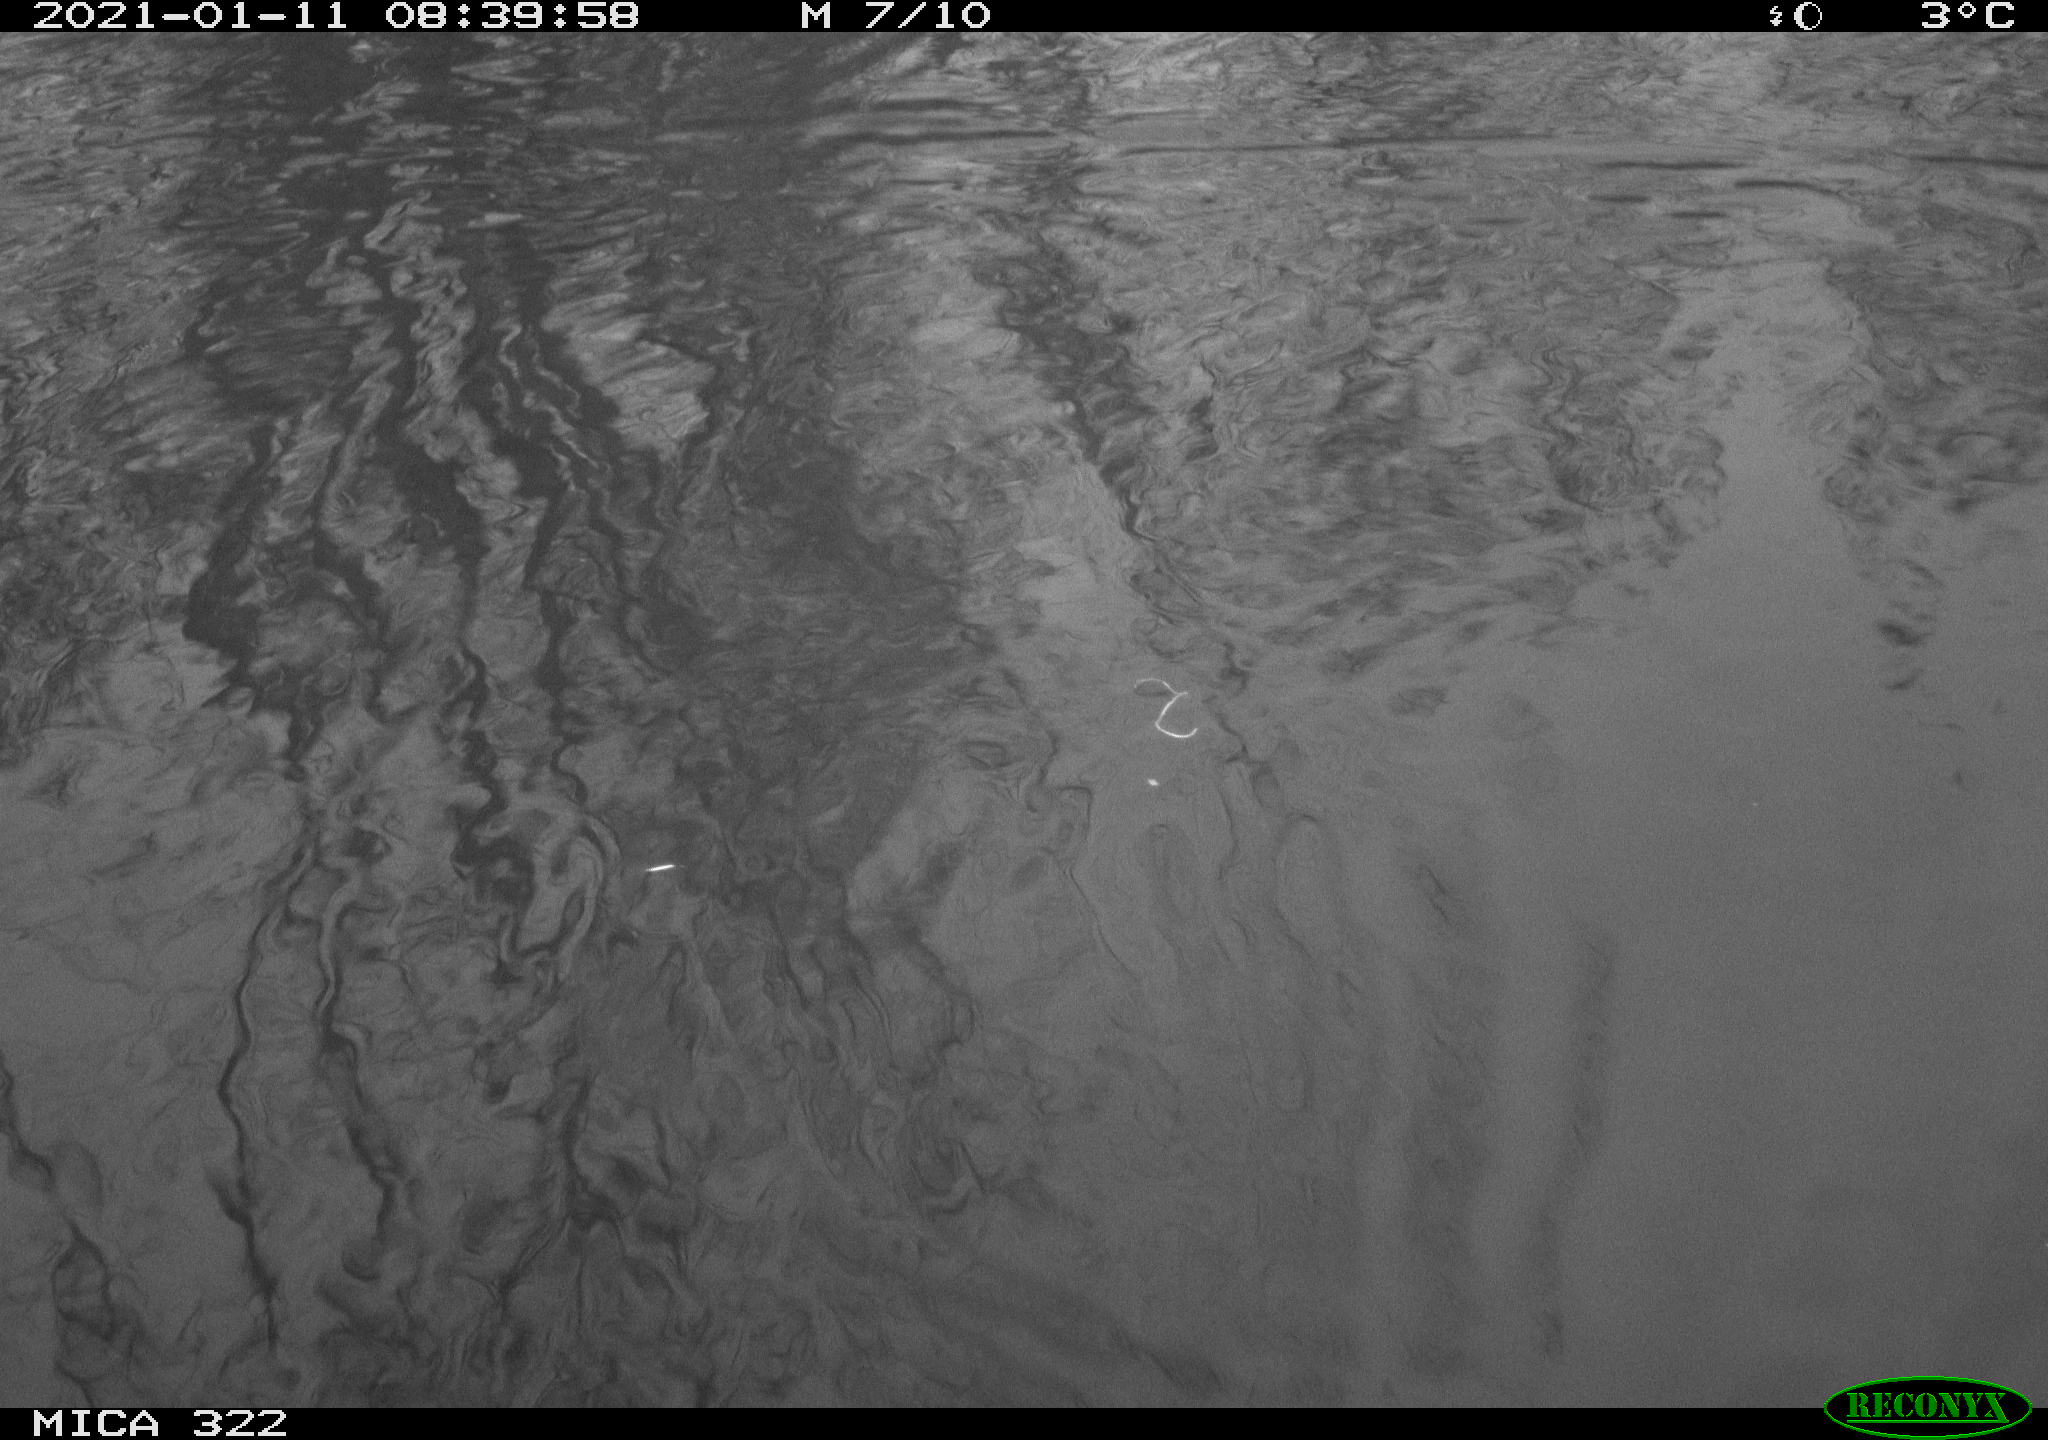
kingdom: Animalia
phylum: Chordata
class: Aves
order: Gruiformes
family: Rallidae
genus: Fulica
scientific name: Fulica atra
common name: Eurasian coot
